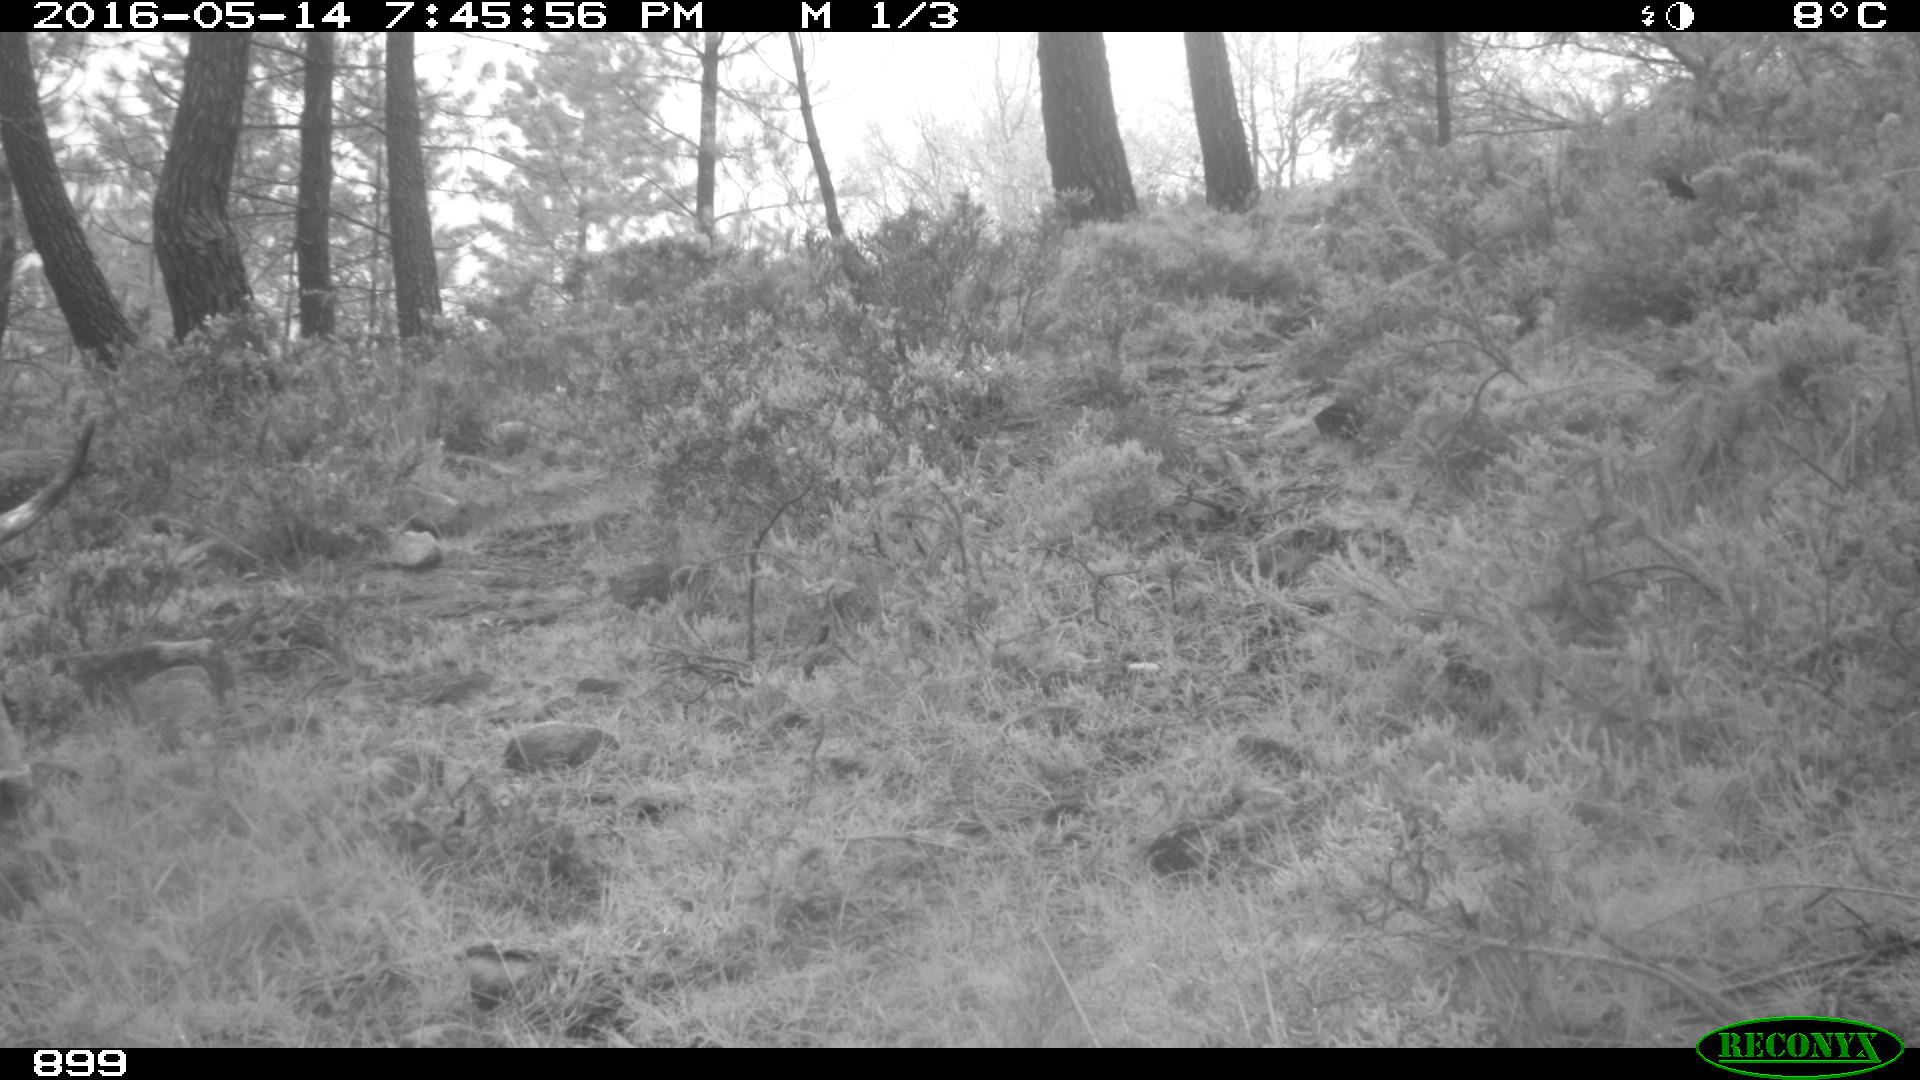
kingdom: Animalia
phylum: Chordata
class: Mammalia
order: Artiodactyla
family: Bovidae
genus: Bos
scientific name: Bos taurus
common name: Domesticated cattle
